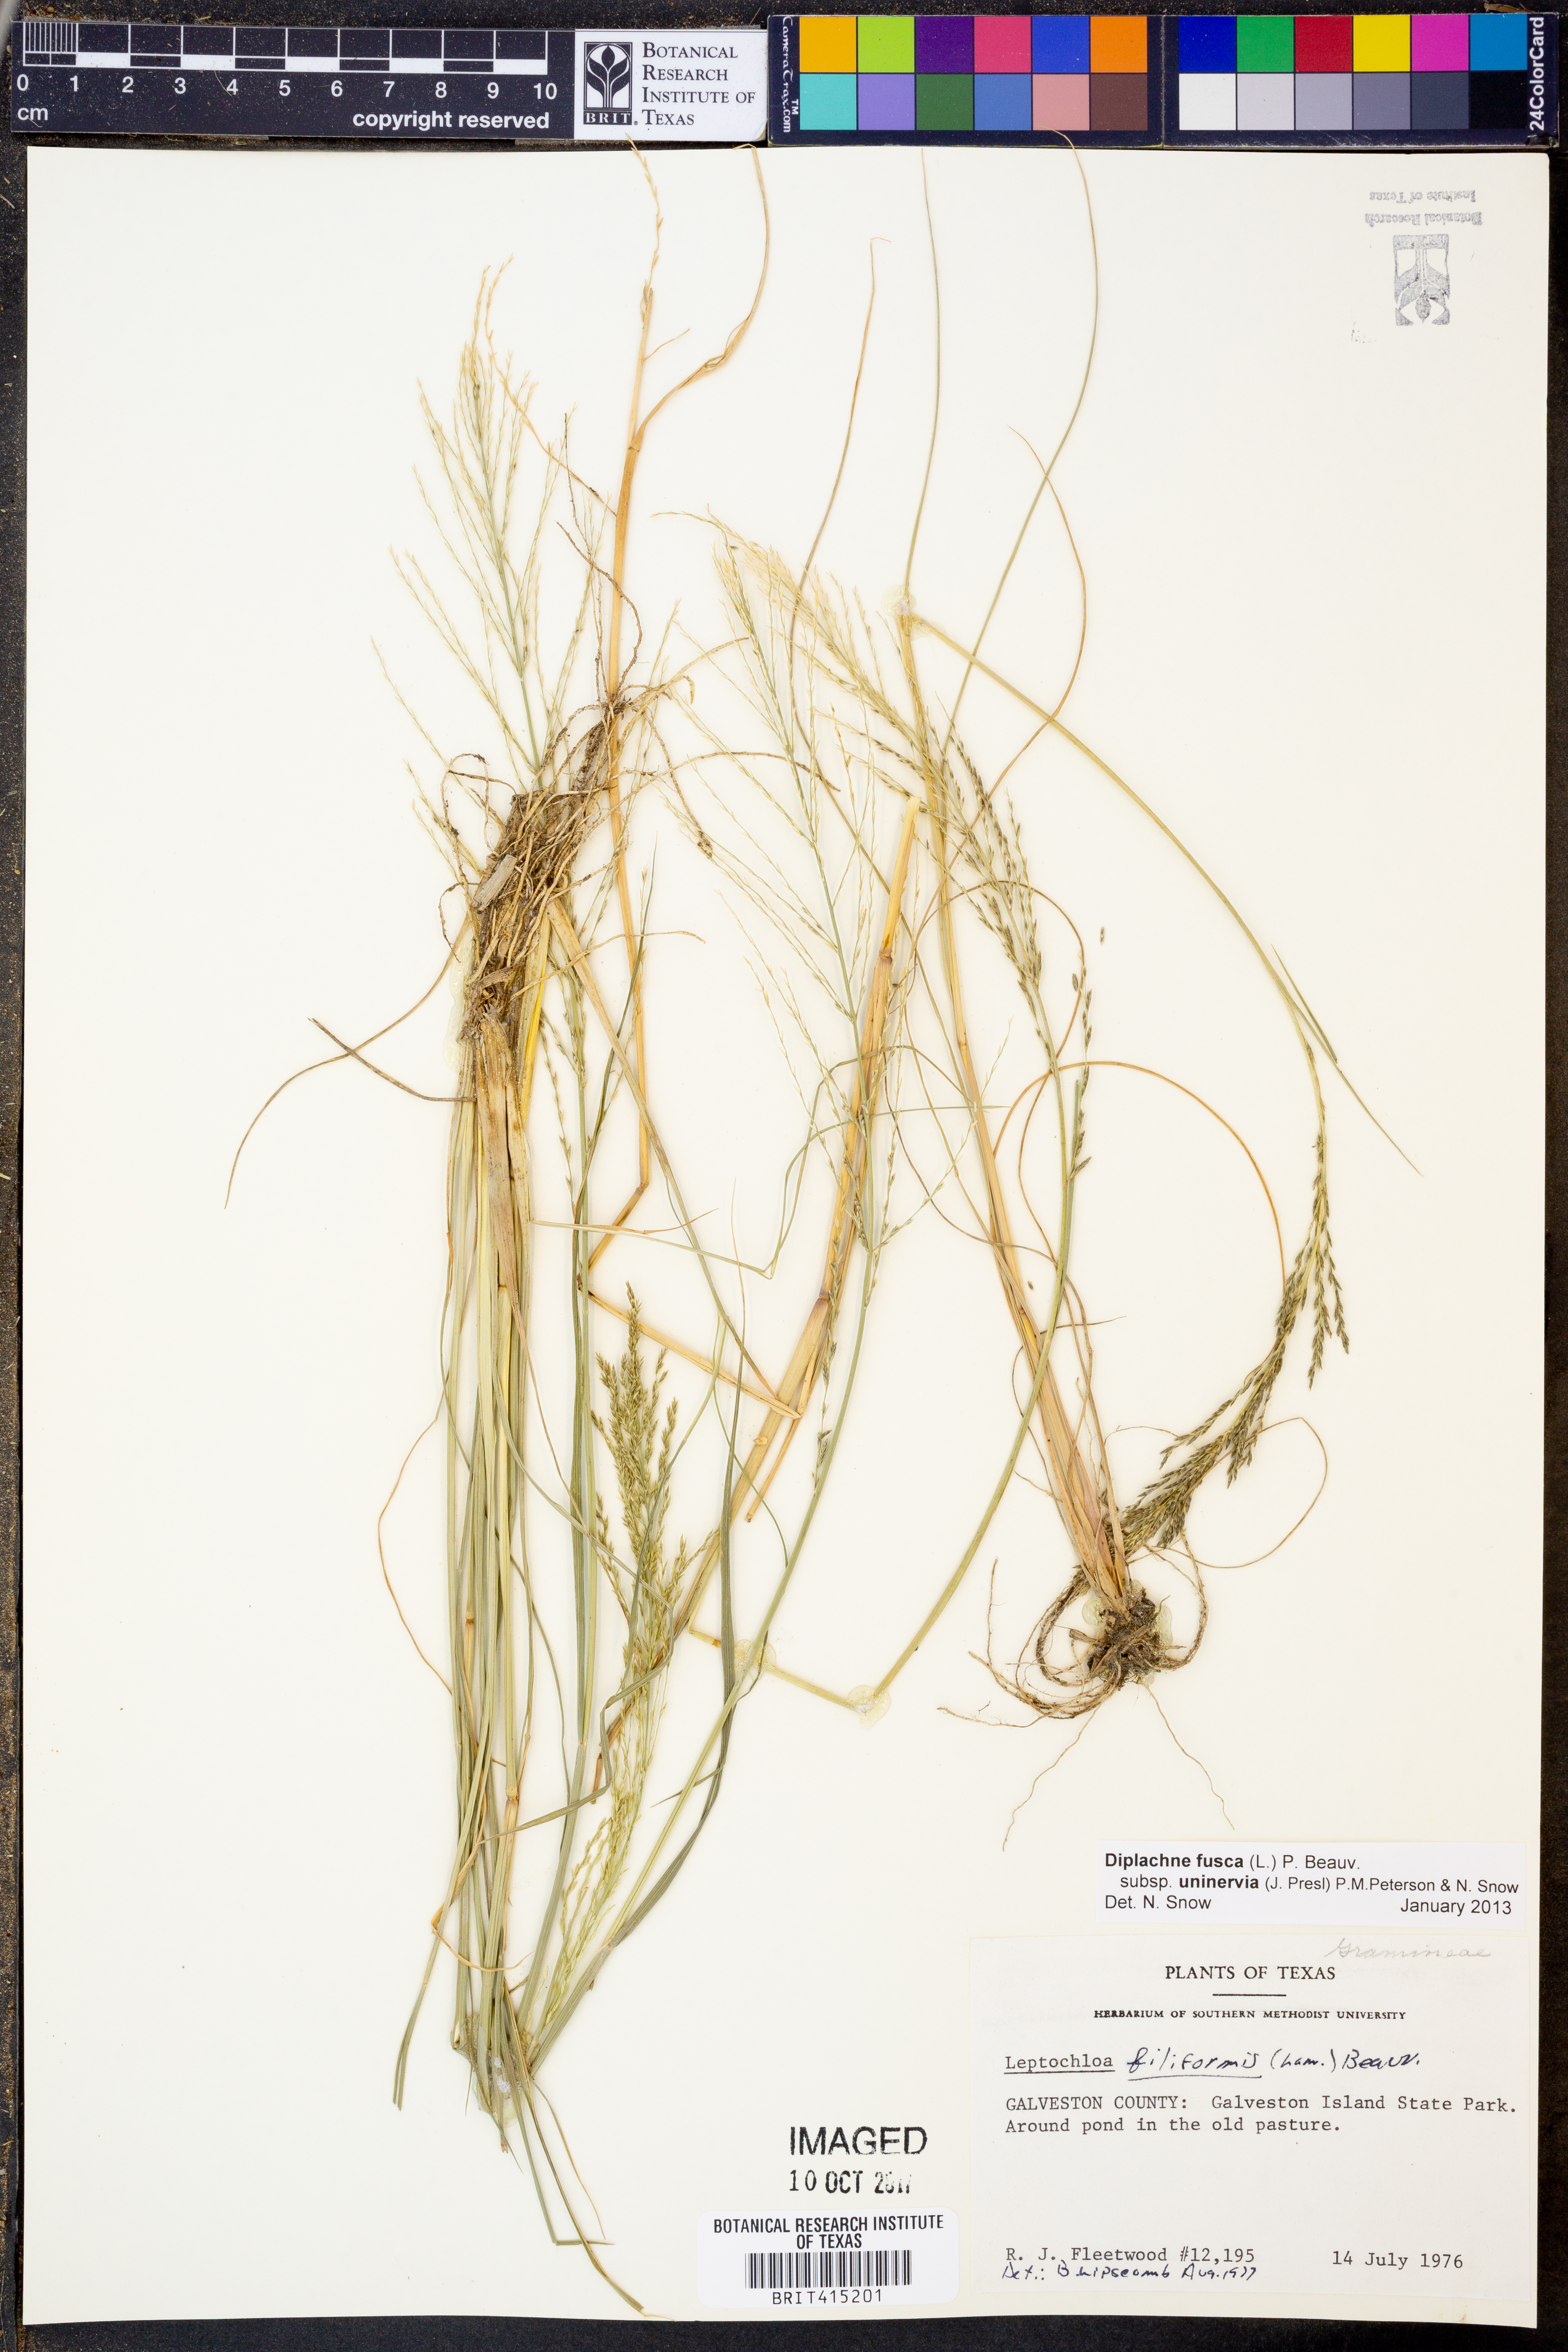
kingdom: Plantae
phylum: Tracheophyta
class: Liliopsida
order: Poales
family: Poaceae
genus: Diplachne
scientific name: Diplachne fusca
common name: Brown beetle grass
